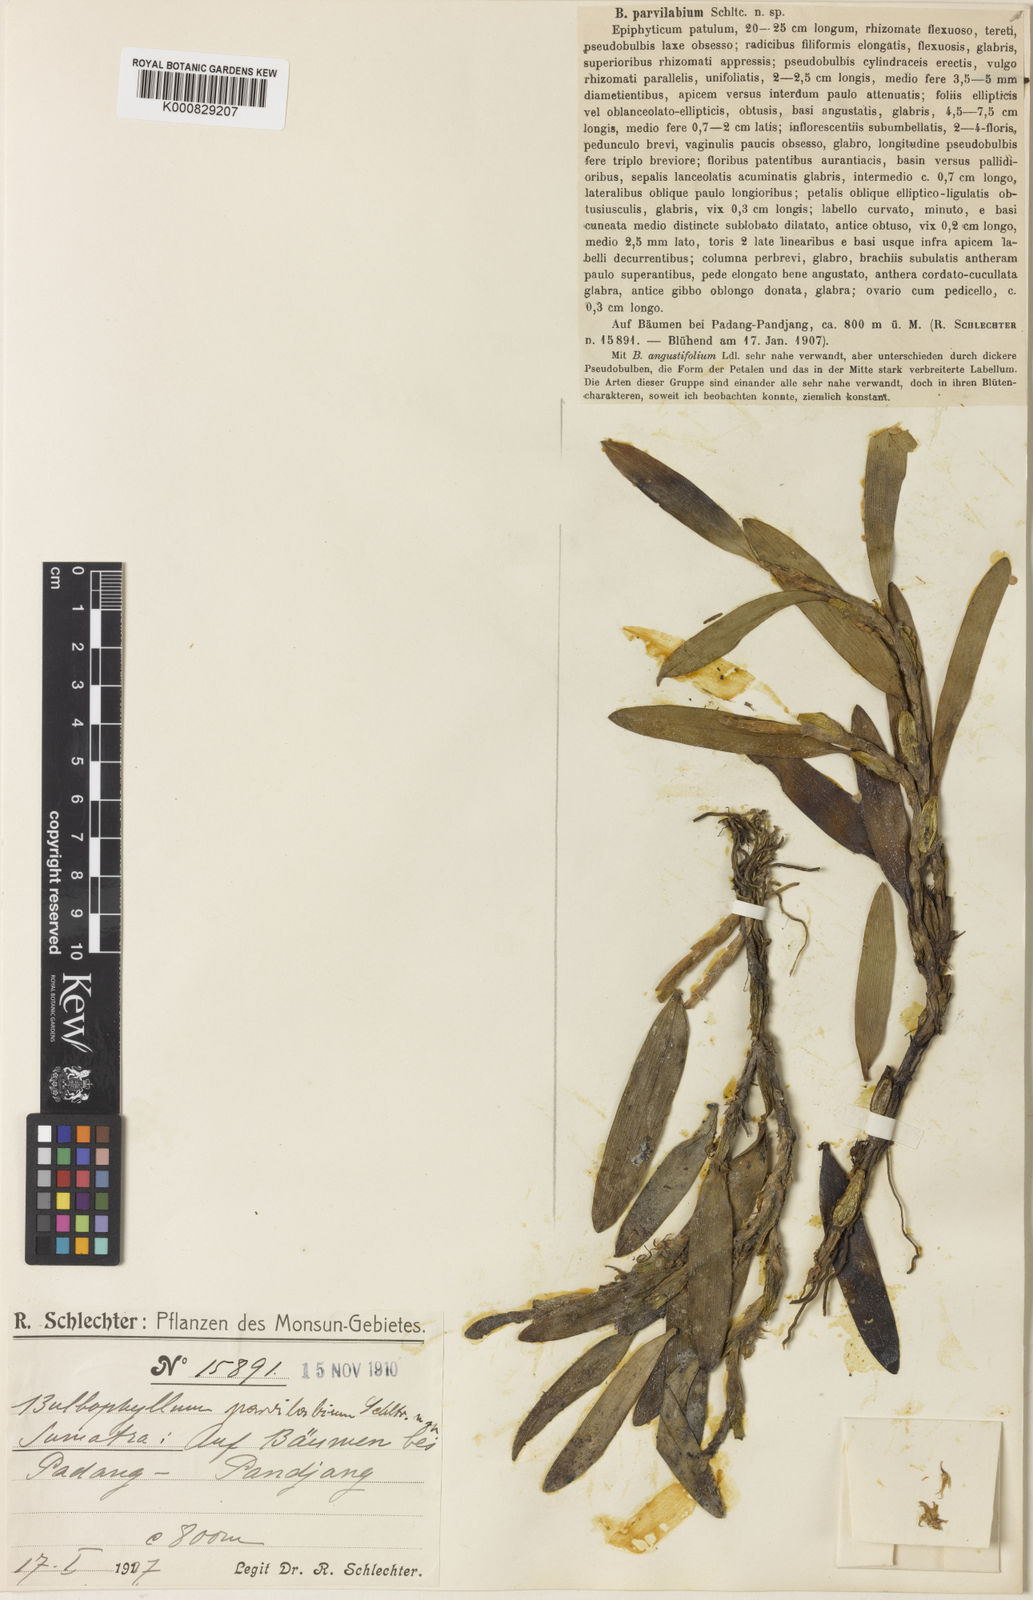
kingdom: Plantae
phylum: Tracheophyta
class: Liliopsida
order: Asparagales
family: Orchidaceae
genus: Bulbophyllum
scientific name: Bulbophyllum microlabium
